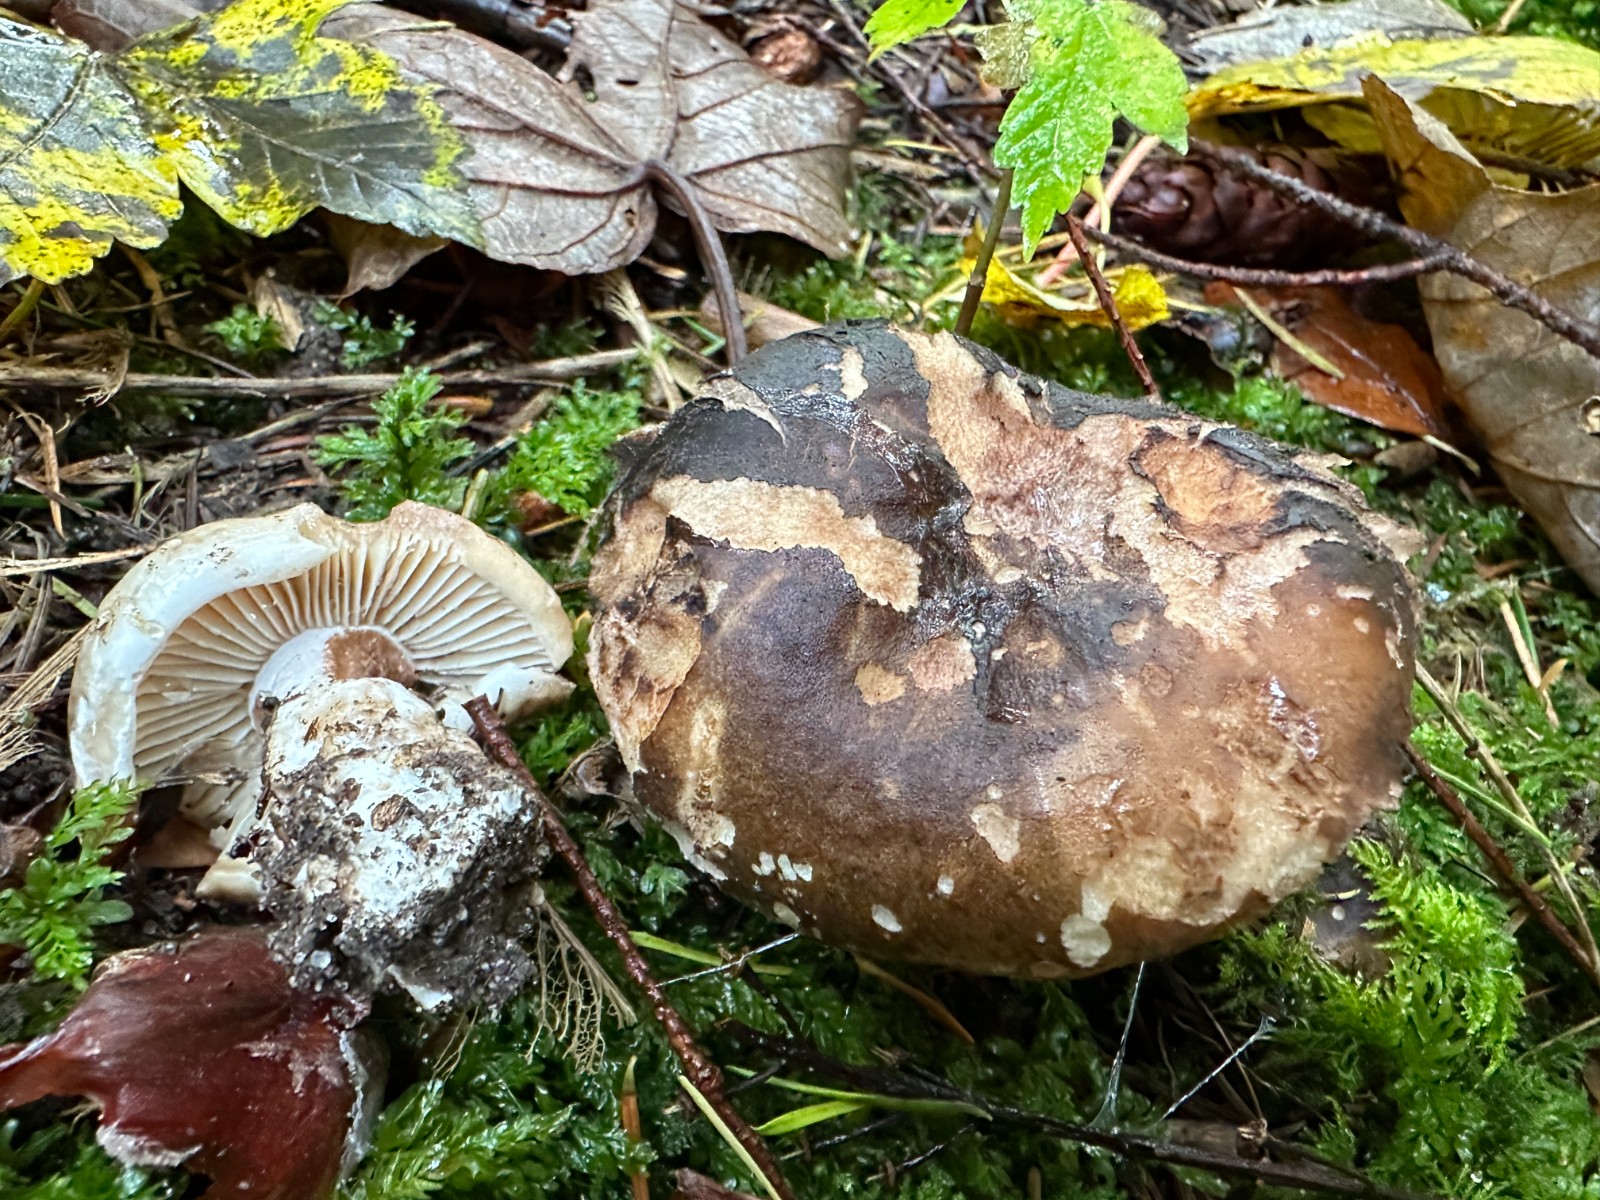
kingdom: Fungi
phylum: Basidiomycota
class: Agaricomycetes
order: Russulales
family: Russulaceae
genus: Russula
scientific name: Russula adusta
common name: sværtende skørhat
